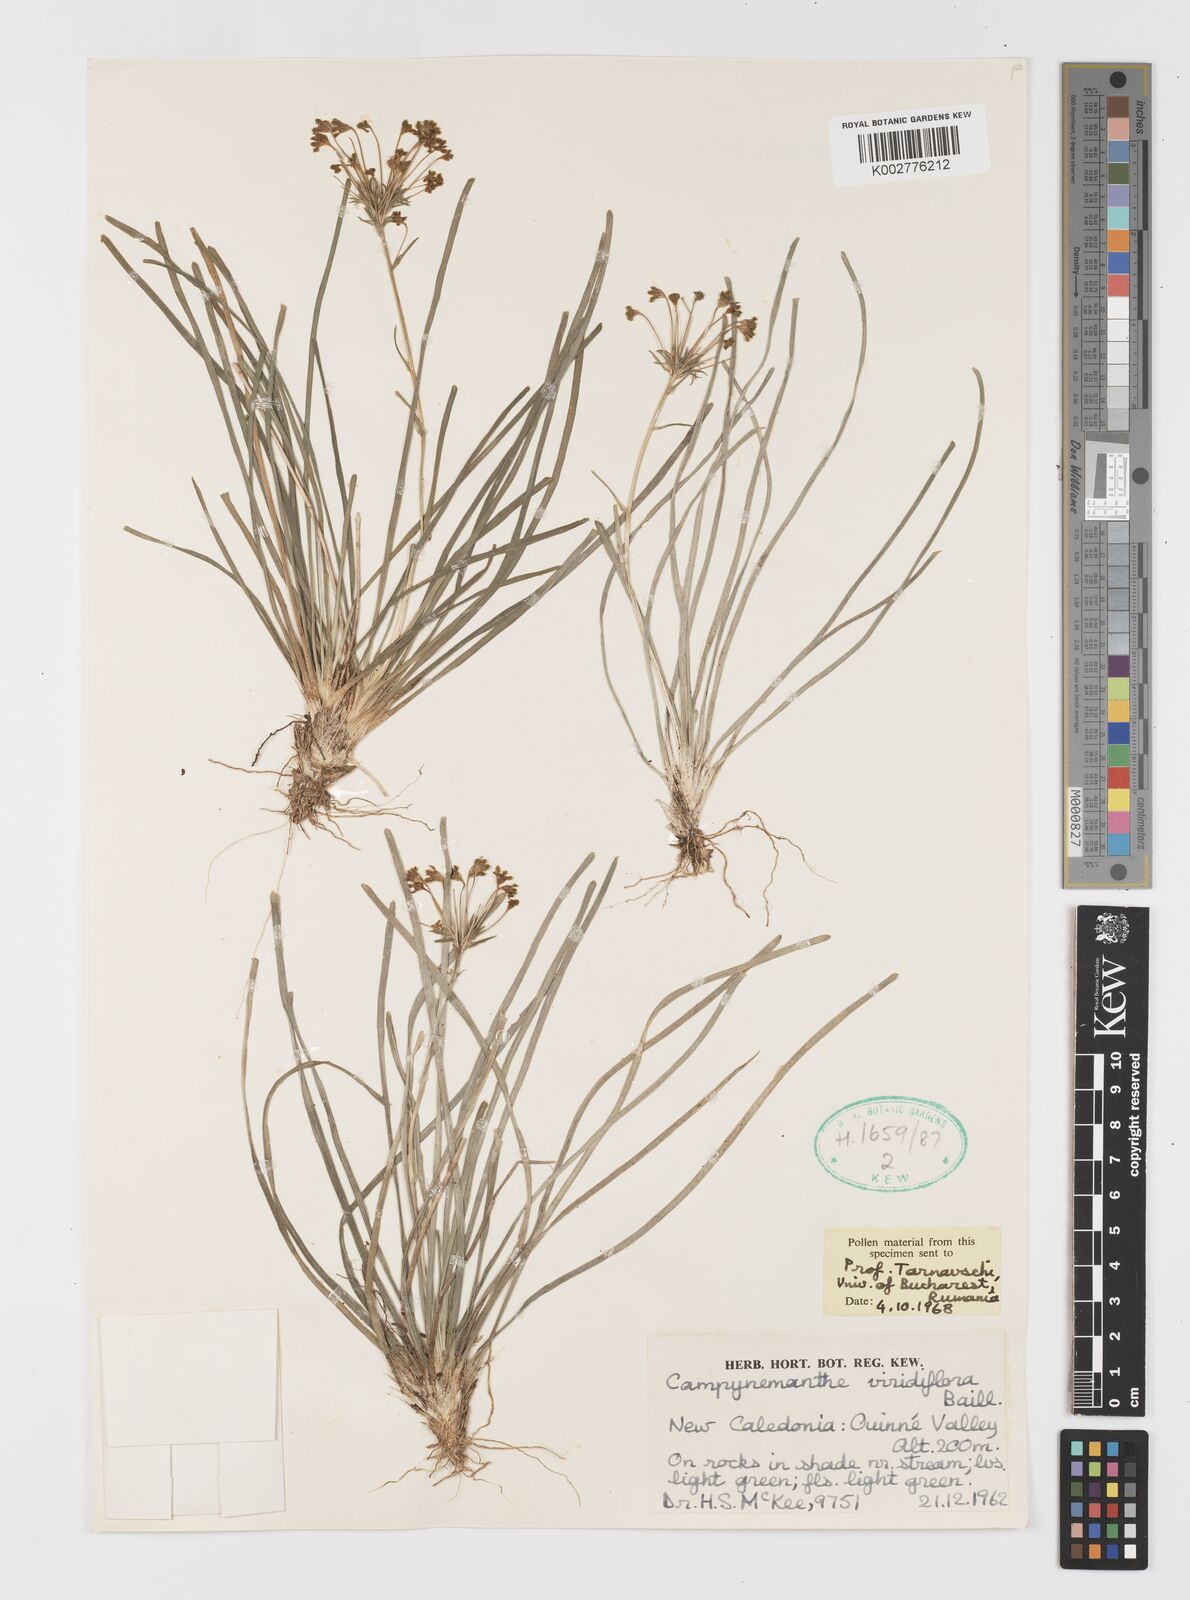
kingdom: Plantae
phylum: Tracheophyta
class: Liliopsida
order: Liliales
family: Campynemataceae
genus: Campynemanthe
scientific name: Campynemanthe viridiflora
